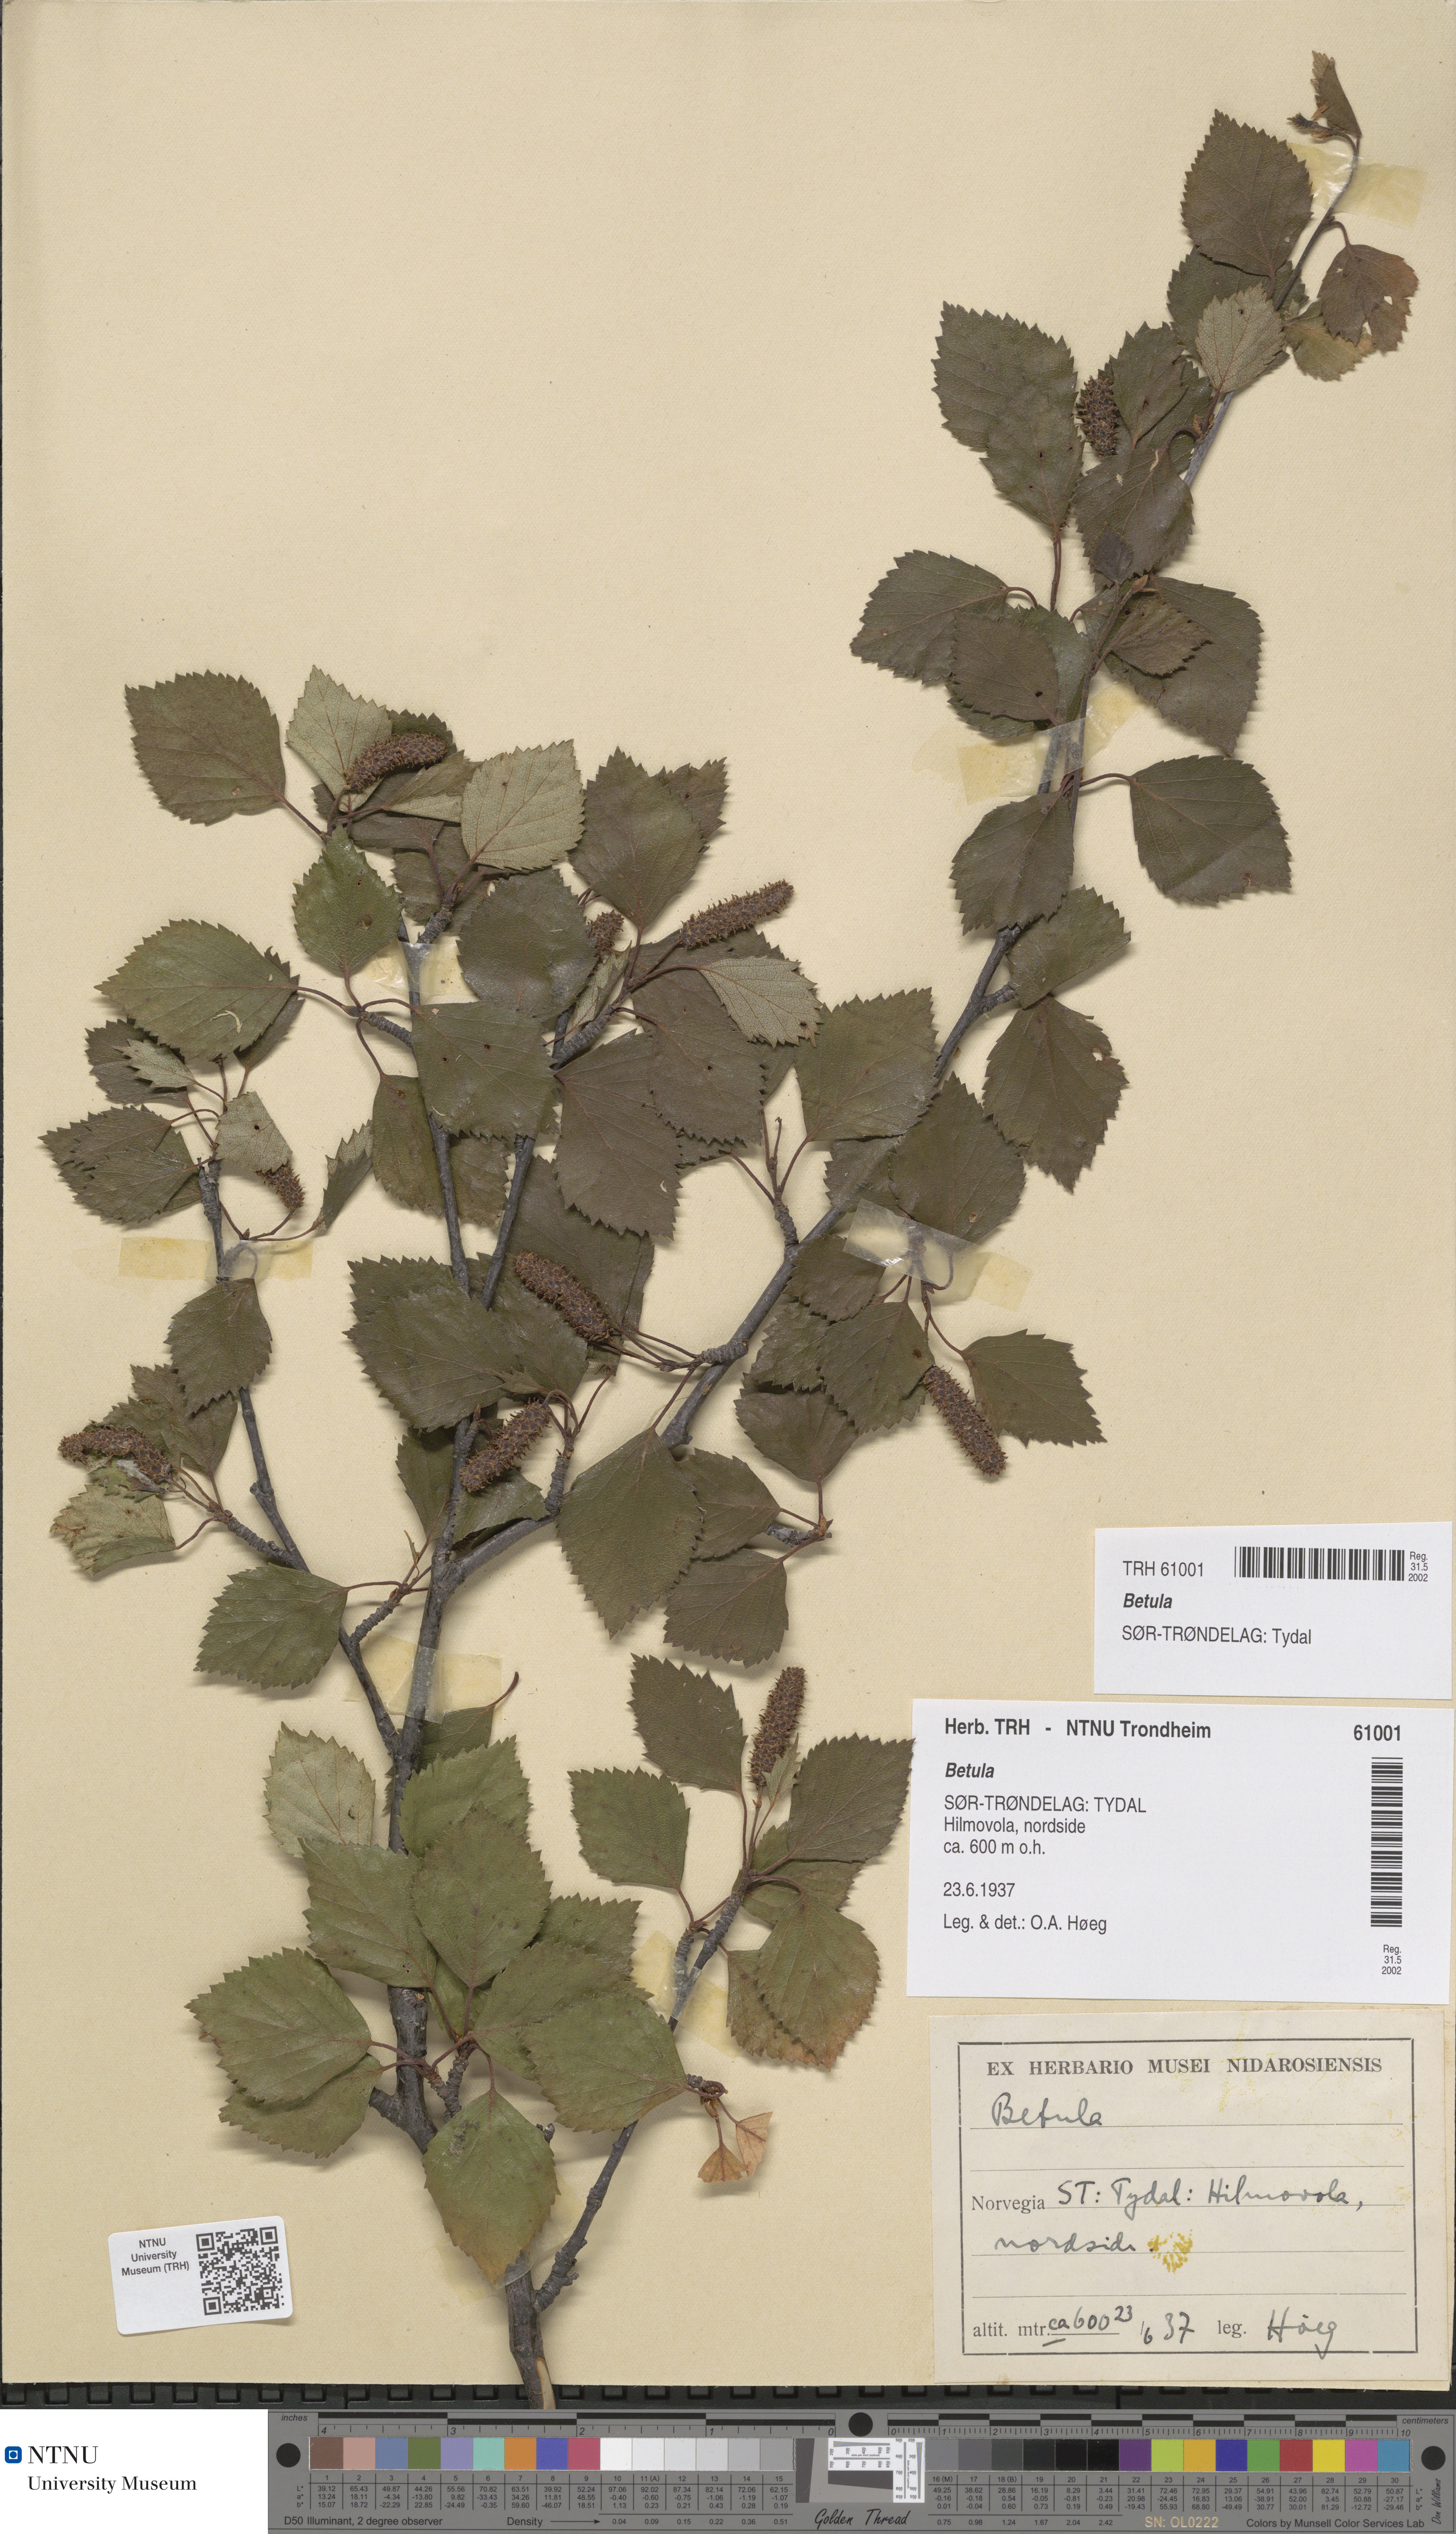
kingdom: Plantae
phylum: Tracheophyta
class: Magnoliopsida
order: Fagales
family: Betulaceae
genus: Betula
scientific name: Betula
